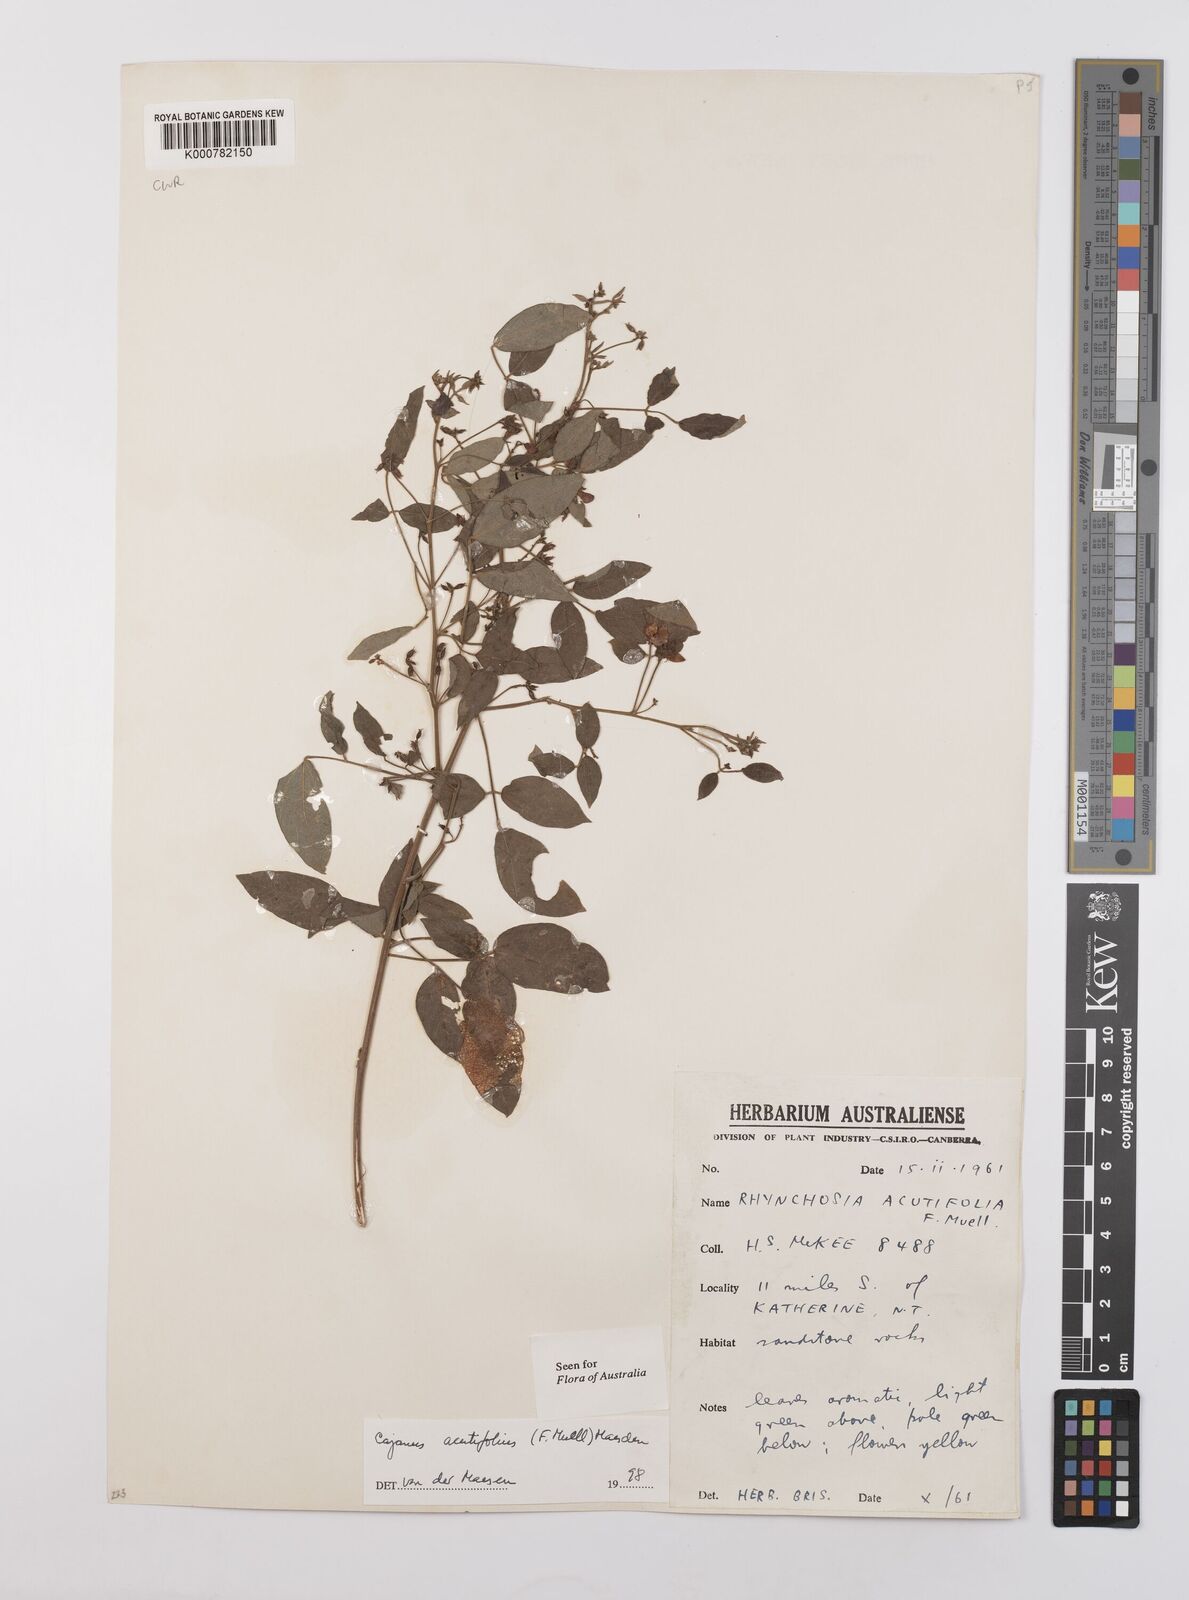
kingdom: Plantae
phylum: Tracheophyta
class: Magnoliopsida
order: Fabales
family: Fabaceae
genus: Cajanus
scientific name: Cajanus acutifolius
